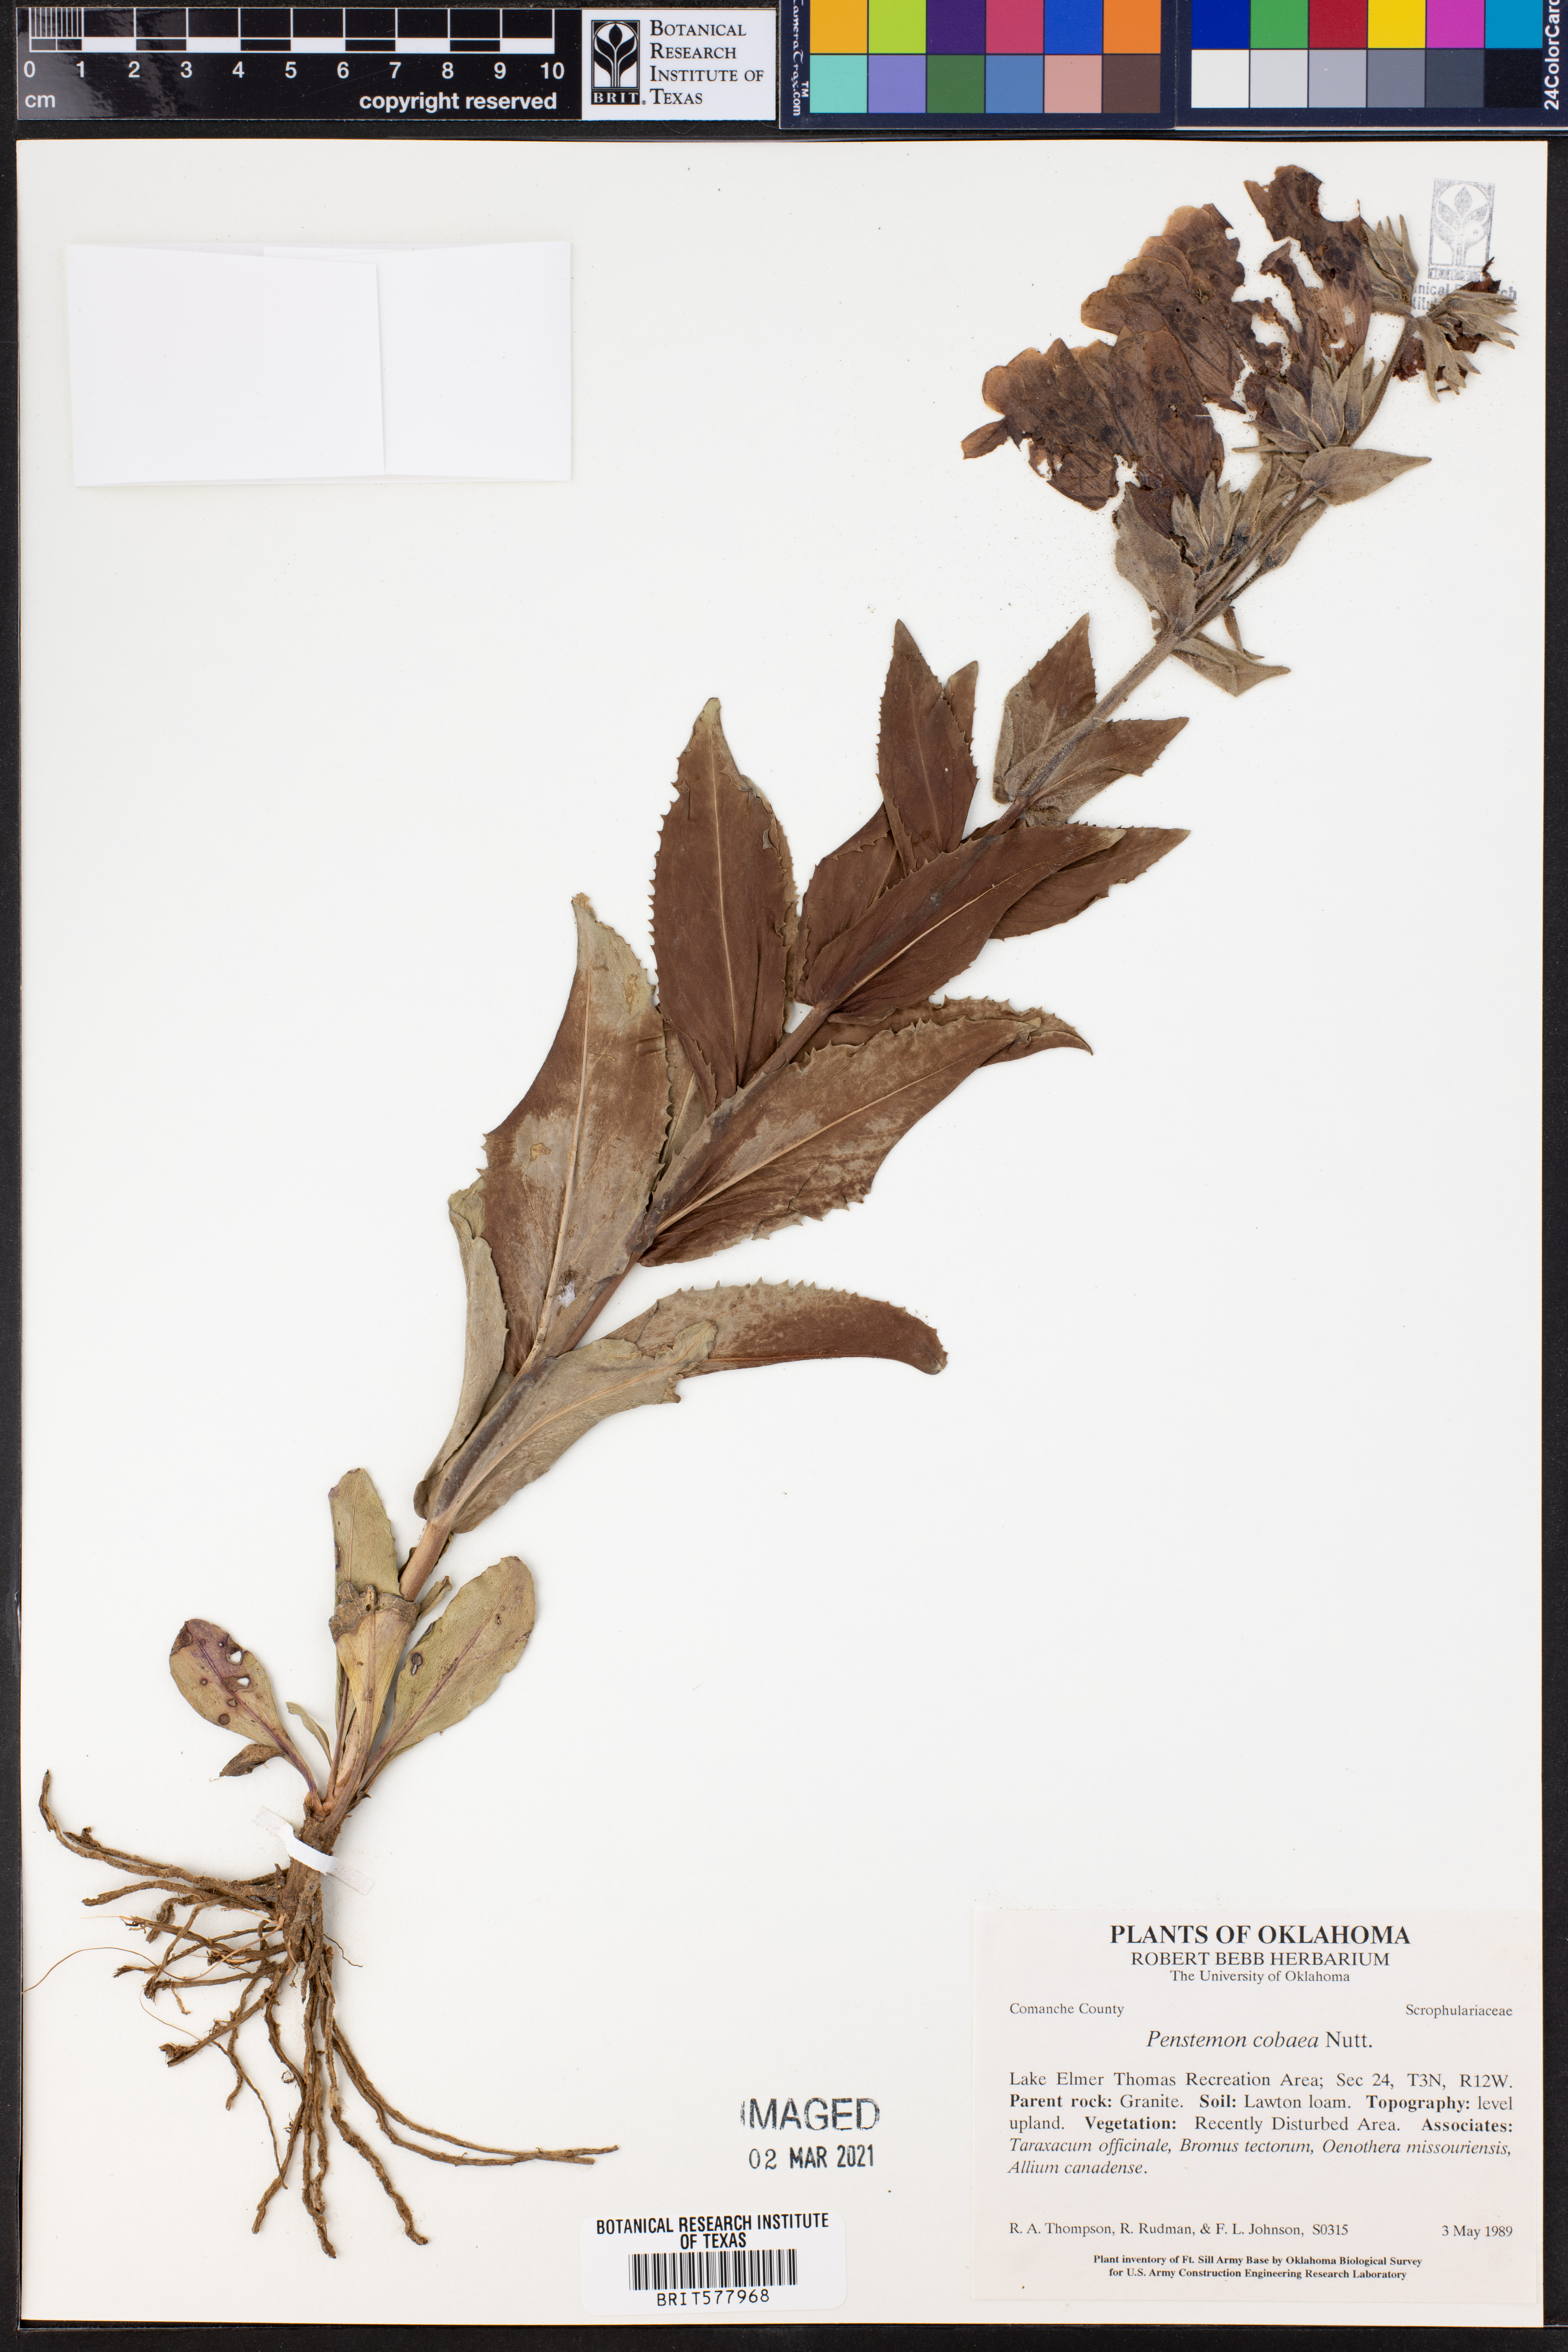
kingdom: Plantae
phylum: Tracheophyta
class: Magnoliopsida
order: Lamiales
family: Plantaginaceae
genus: Penstemon
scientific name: Penstemon cobaea
